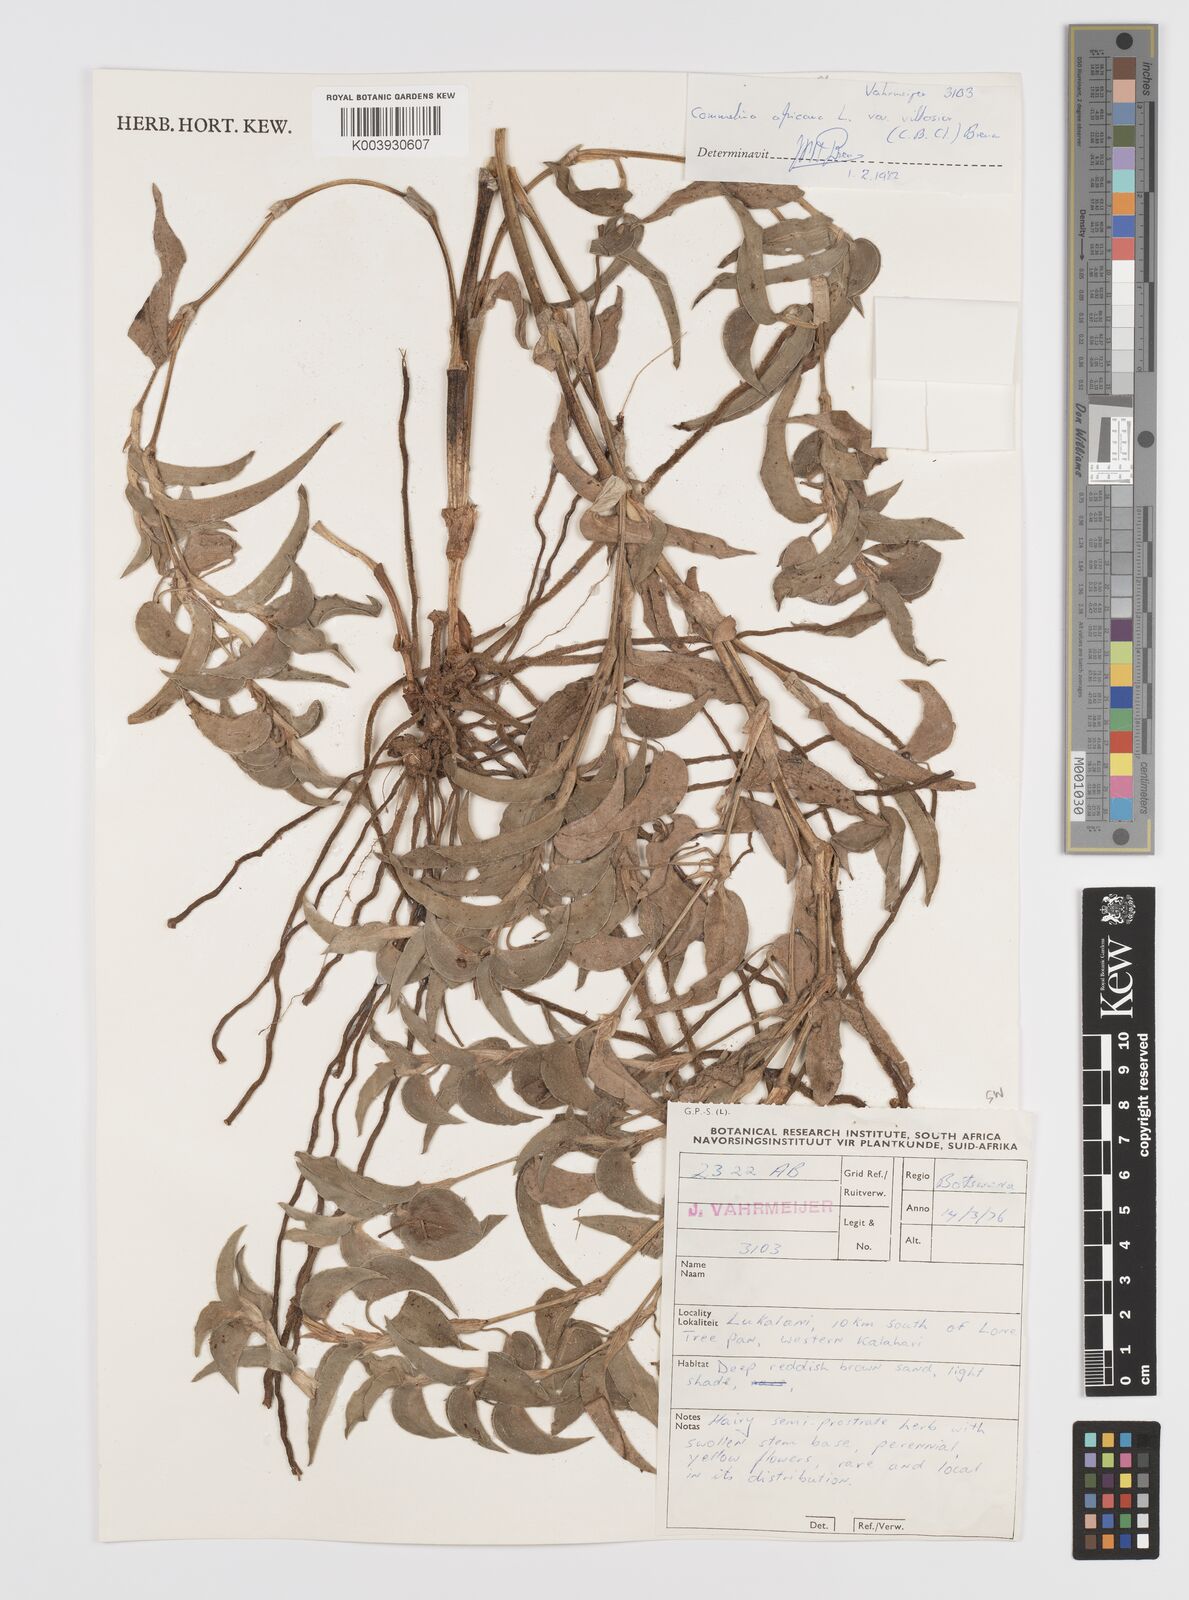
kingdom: Plantae
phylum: Tracheophyta
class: Liliopsida
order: Commelinales
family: Commelinaceae
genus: Commelina
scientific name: Commelina africana
